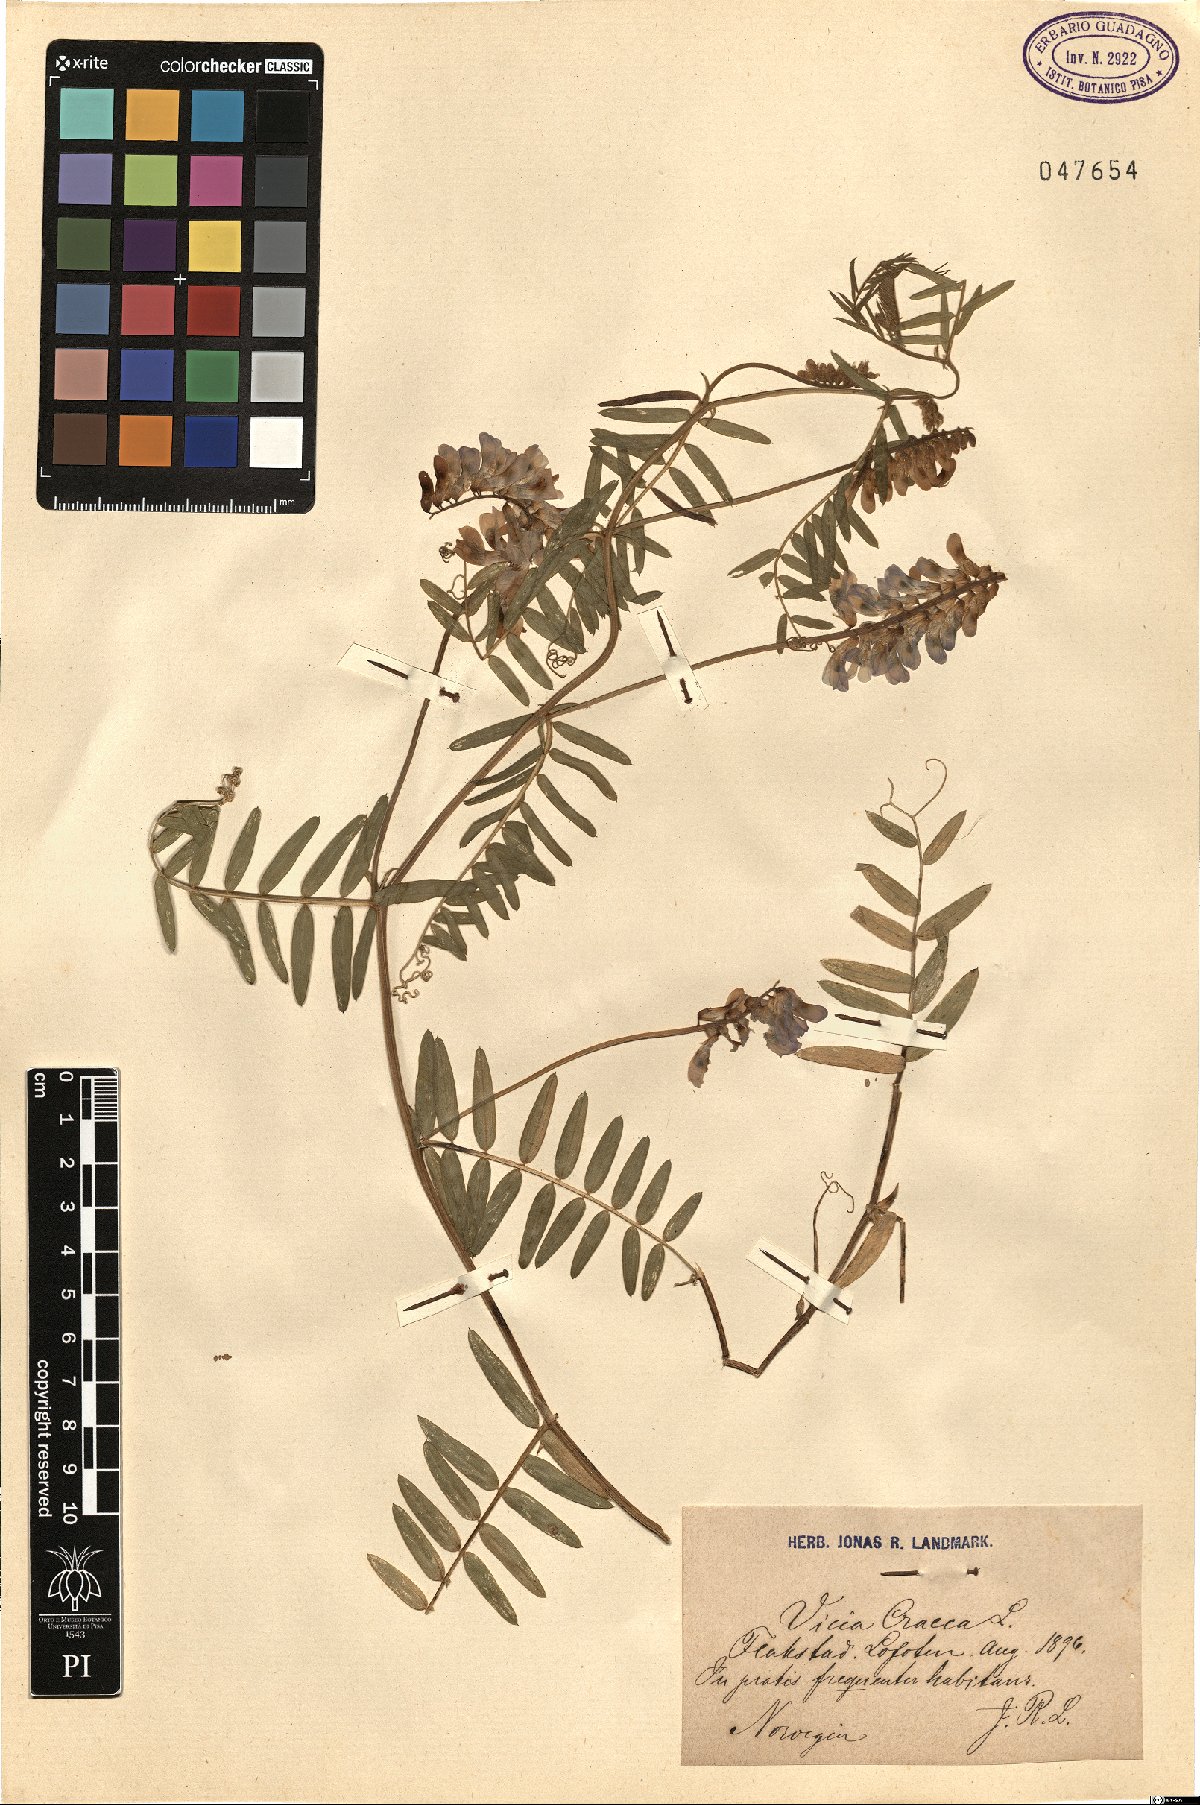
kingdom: Plantae
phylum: Tracheophyta
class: Magnoliopsida
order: Fabales
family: Fabaceae
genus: Vicia
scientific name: Vicia cracca
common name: Bird vetch
